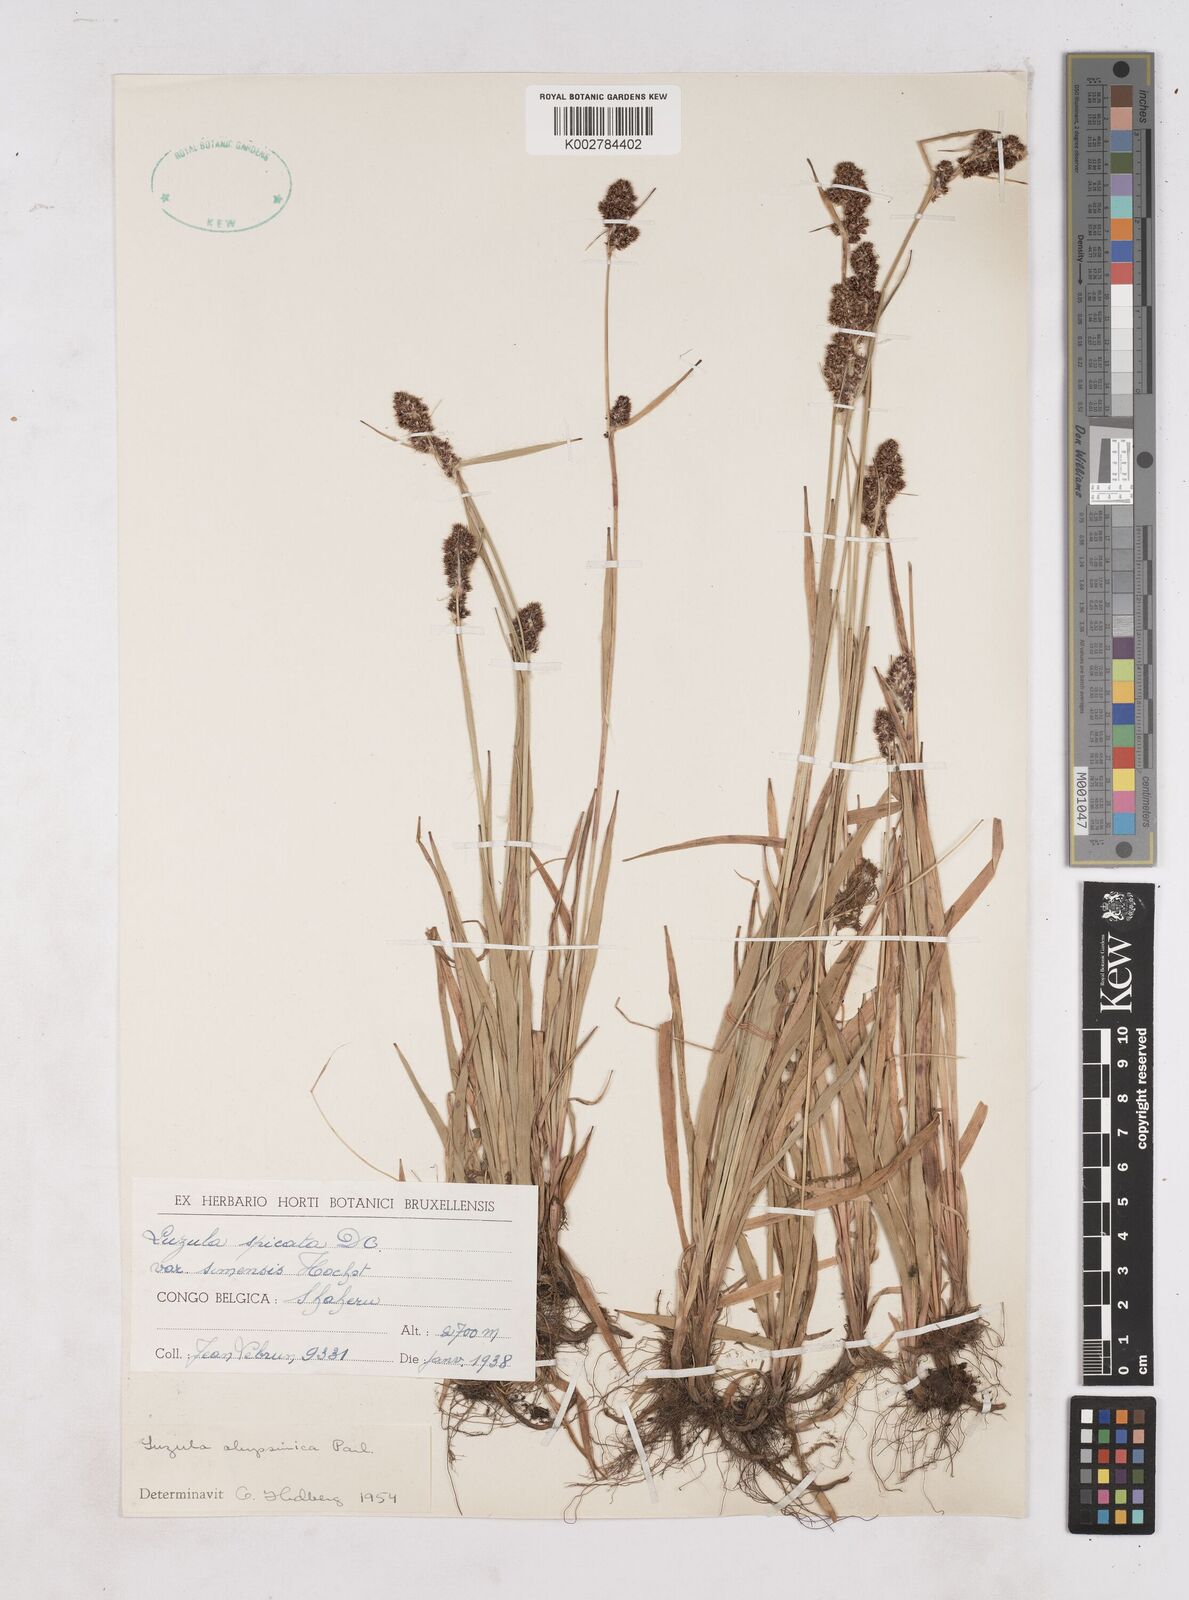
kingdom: Plantae
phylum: Tracheophyta
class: Liliopsida
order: Poales
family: Juncaceae
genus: Luzula
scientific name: Luzula abyssinica
